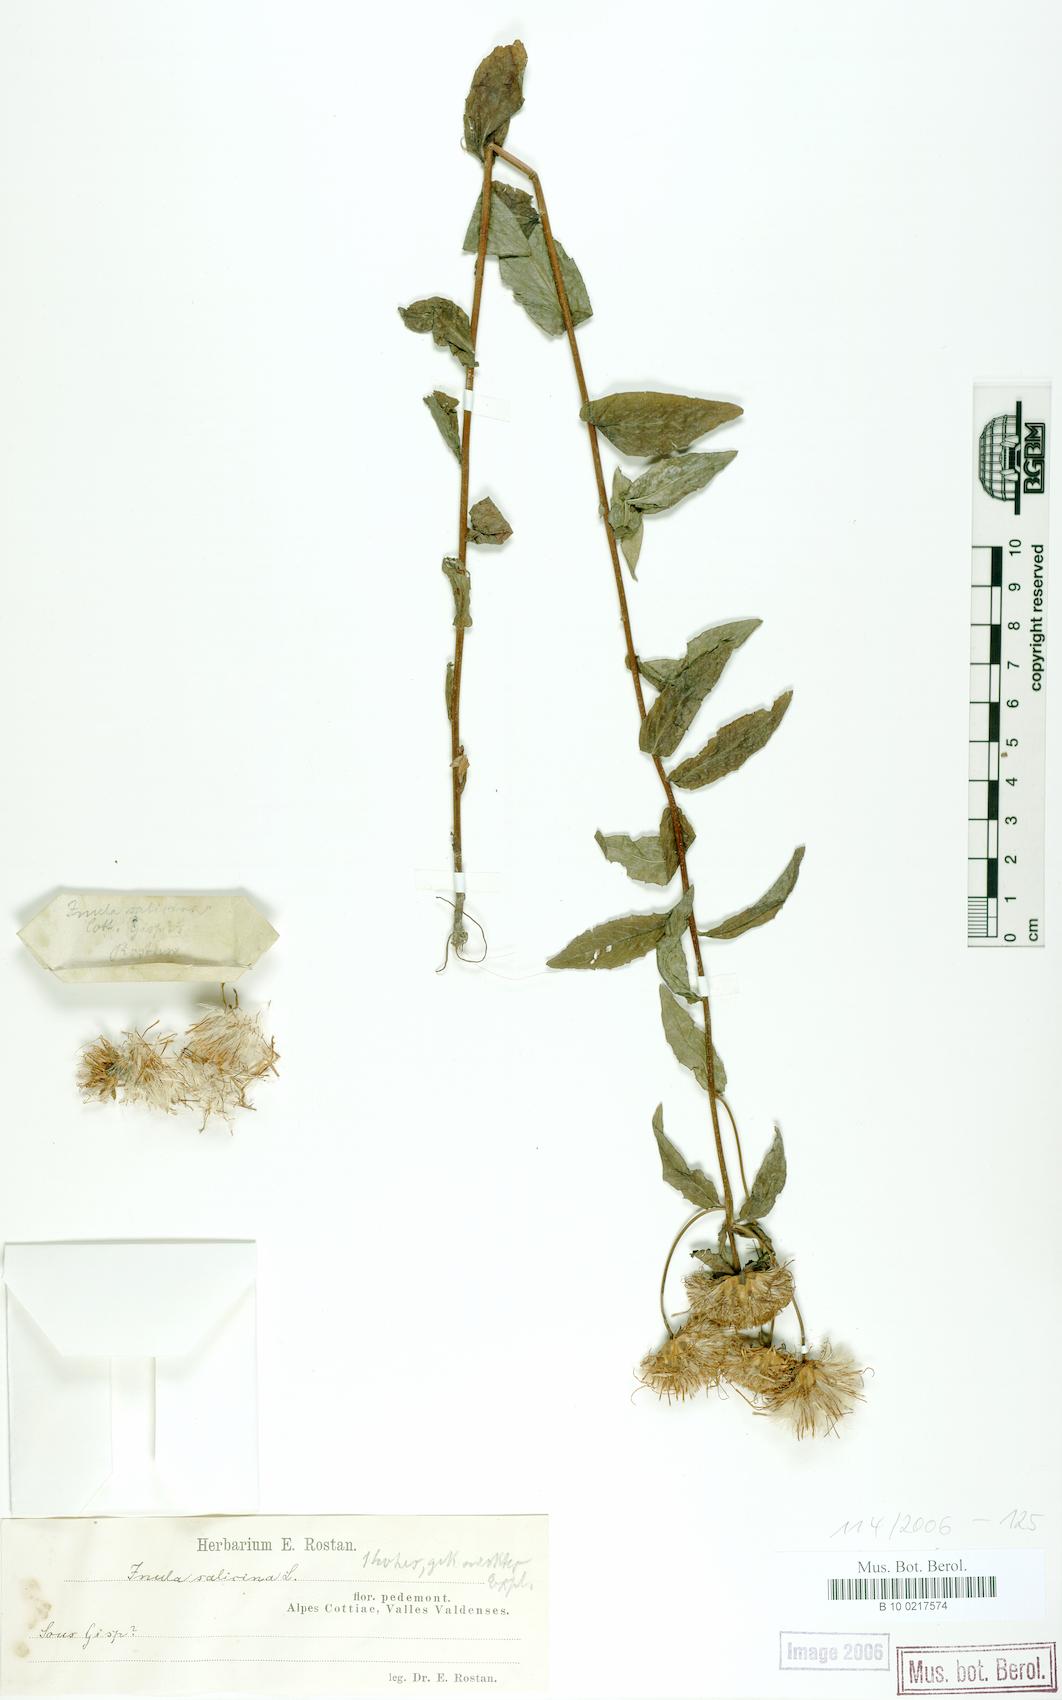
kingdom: Plantae
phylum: Tracheophyta
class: Magnoliopsida
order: Asterales
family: Asteraceae
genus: Pentanema
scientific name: Pentanema salicinum
